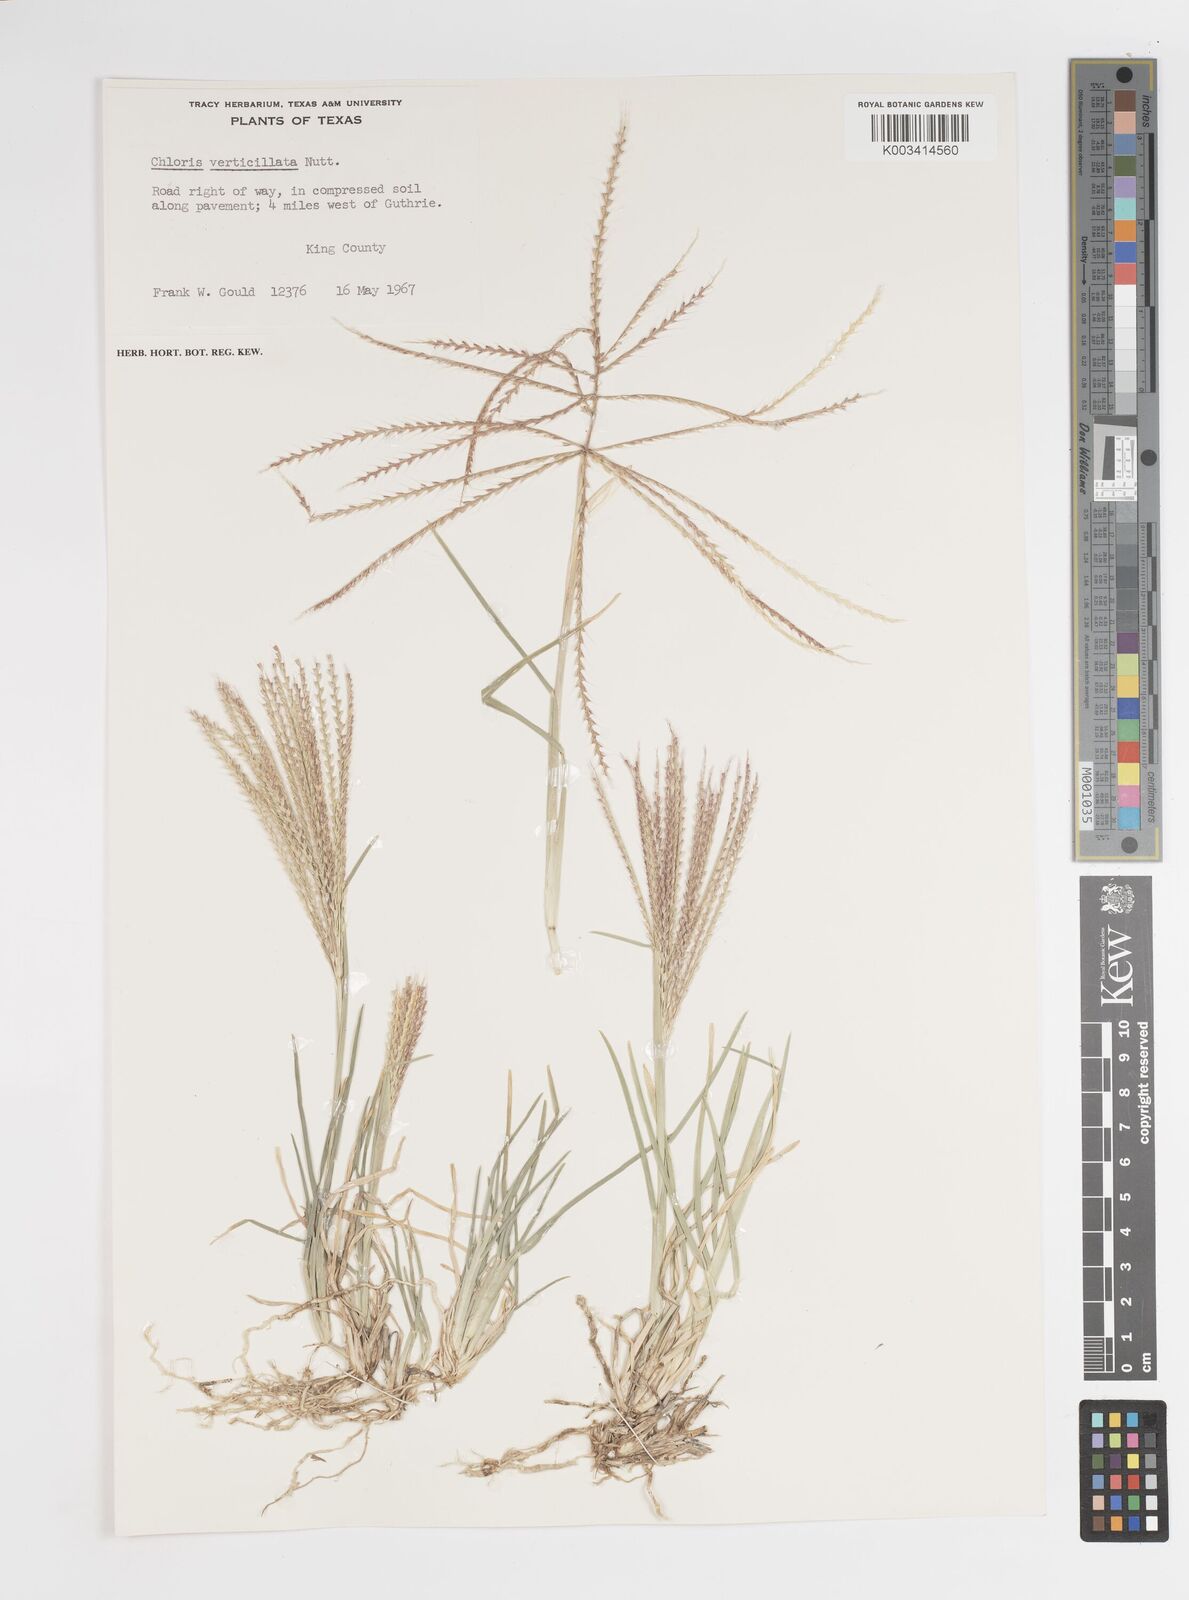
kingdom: Plantae
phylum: Tracheophyta
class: Liliopsida
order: Poales
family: Poaceae
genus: Chloris
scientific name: Chloris verticillata
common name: Tumble windmill grass
